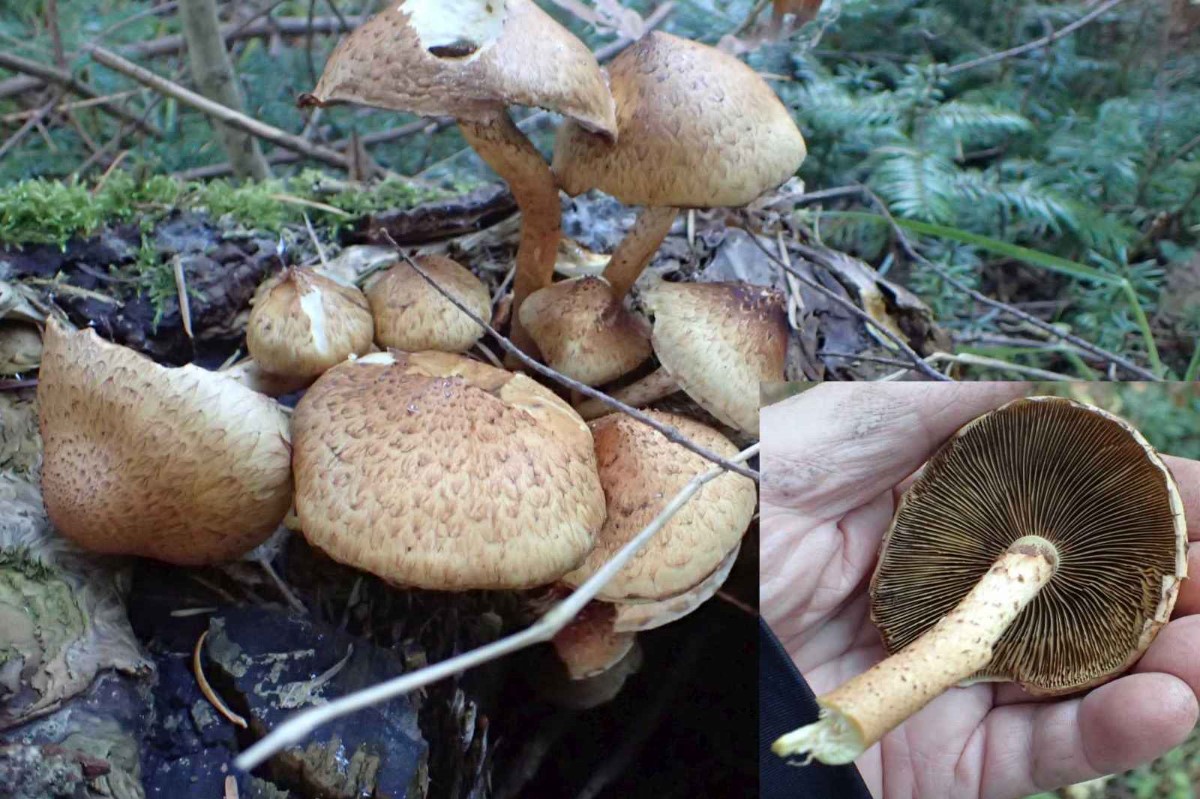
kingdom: Fungi
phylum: Basidiomycota
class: Agaricomycetes
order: Agaricales
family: Strophariaceae
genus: Pholiota
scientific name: Pholiota squarrosa
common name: krumskællet skælhat
